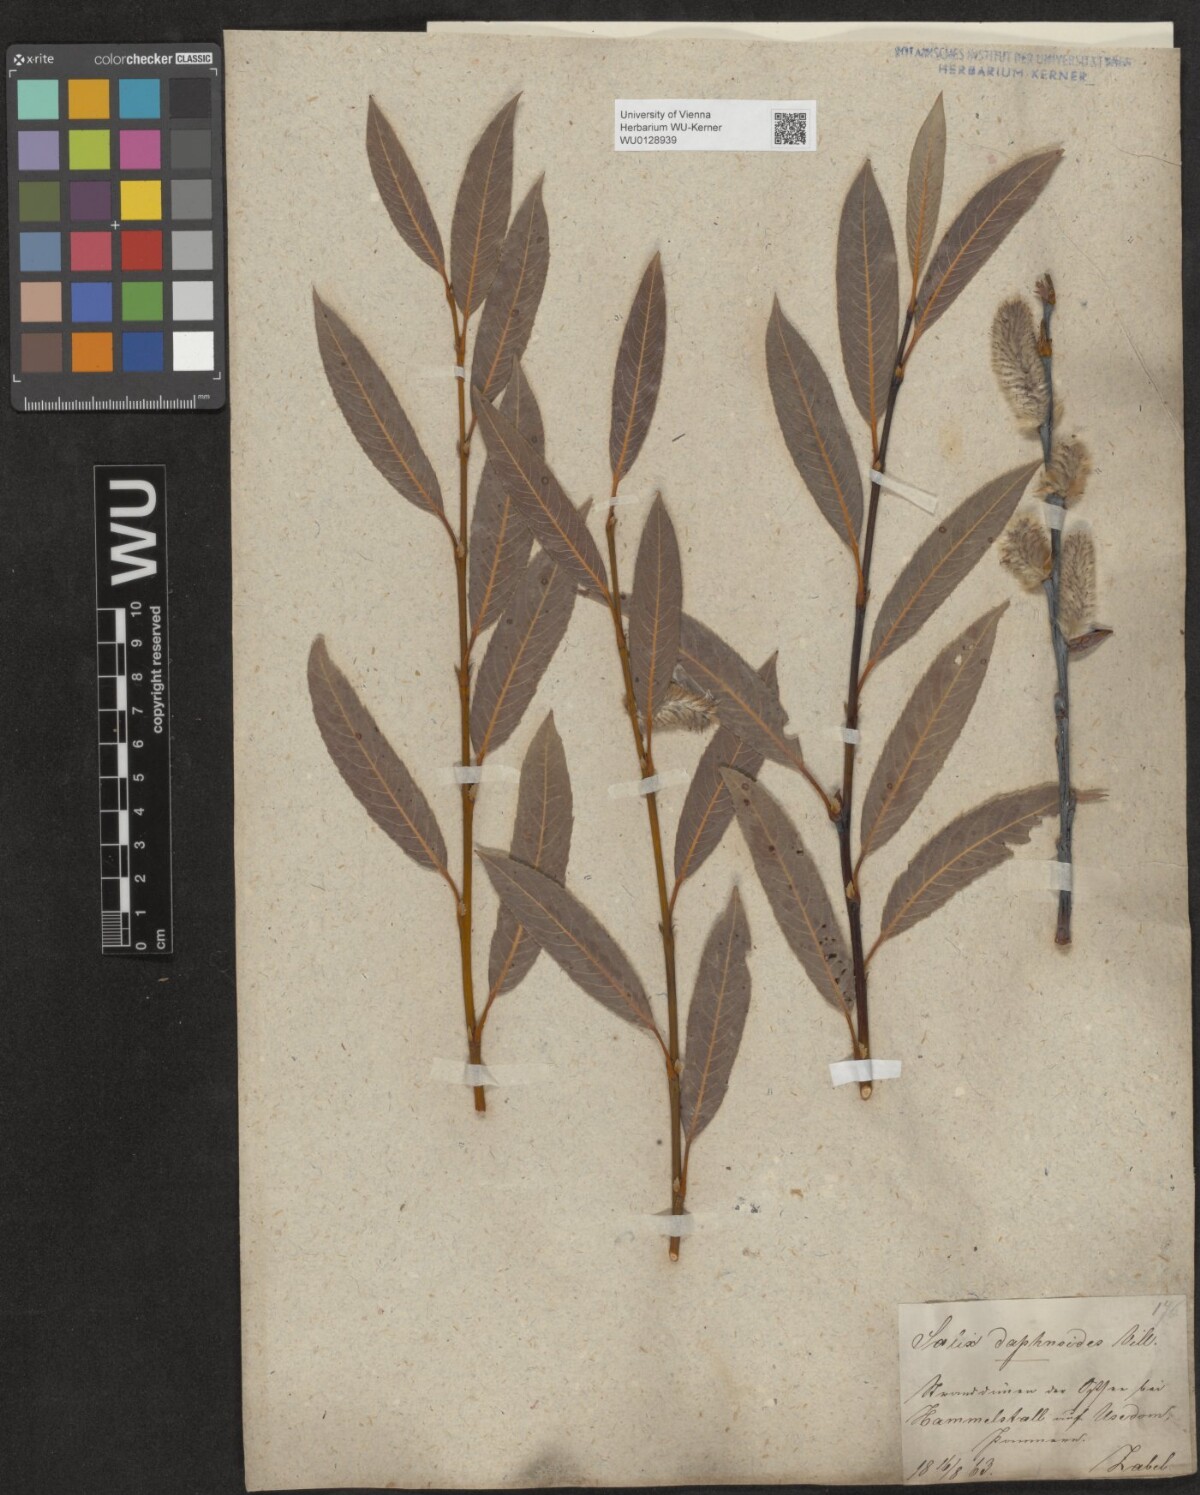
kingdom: Plantae
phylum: Tracheophyta
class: Magnoliopsida
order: Malpighiales
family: Salicaceae
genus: Salix
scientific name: Salix daphnoides
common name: European violet-willow
